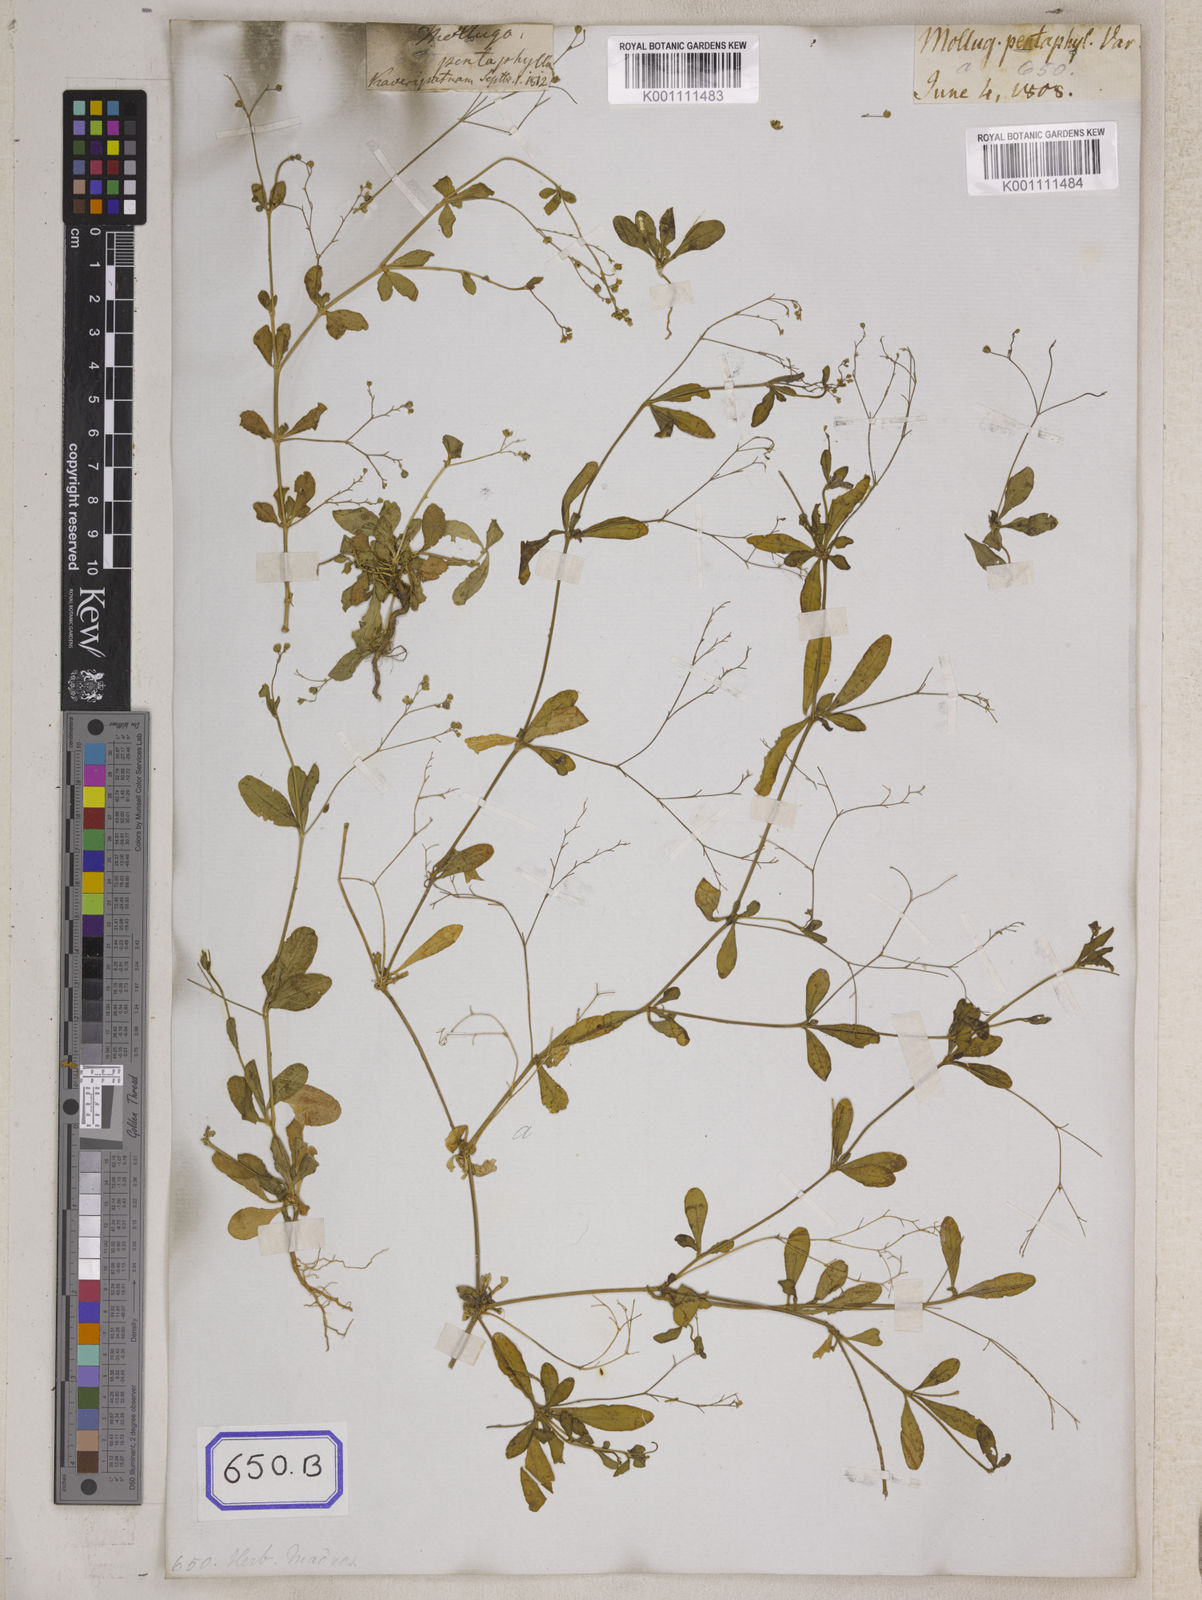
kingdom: Plantae
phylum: Tracheophyta
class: Magnoliopsida
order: Caryophyllales
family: Molluginaceae
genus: Trigastrotheca
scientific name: Trigastrotheca pentaphylla
